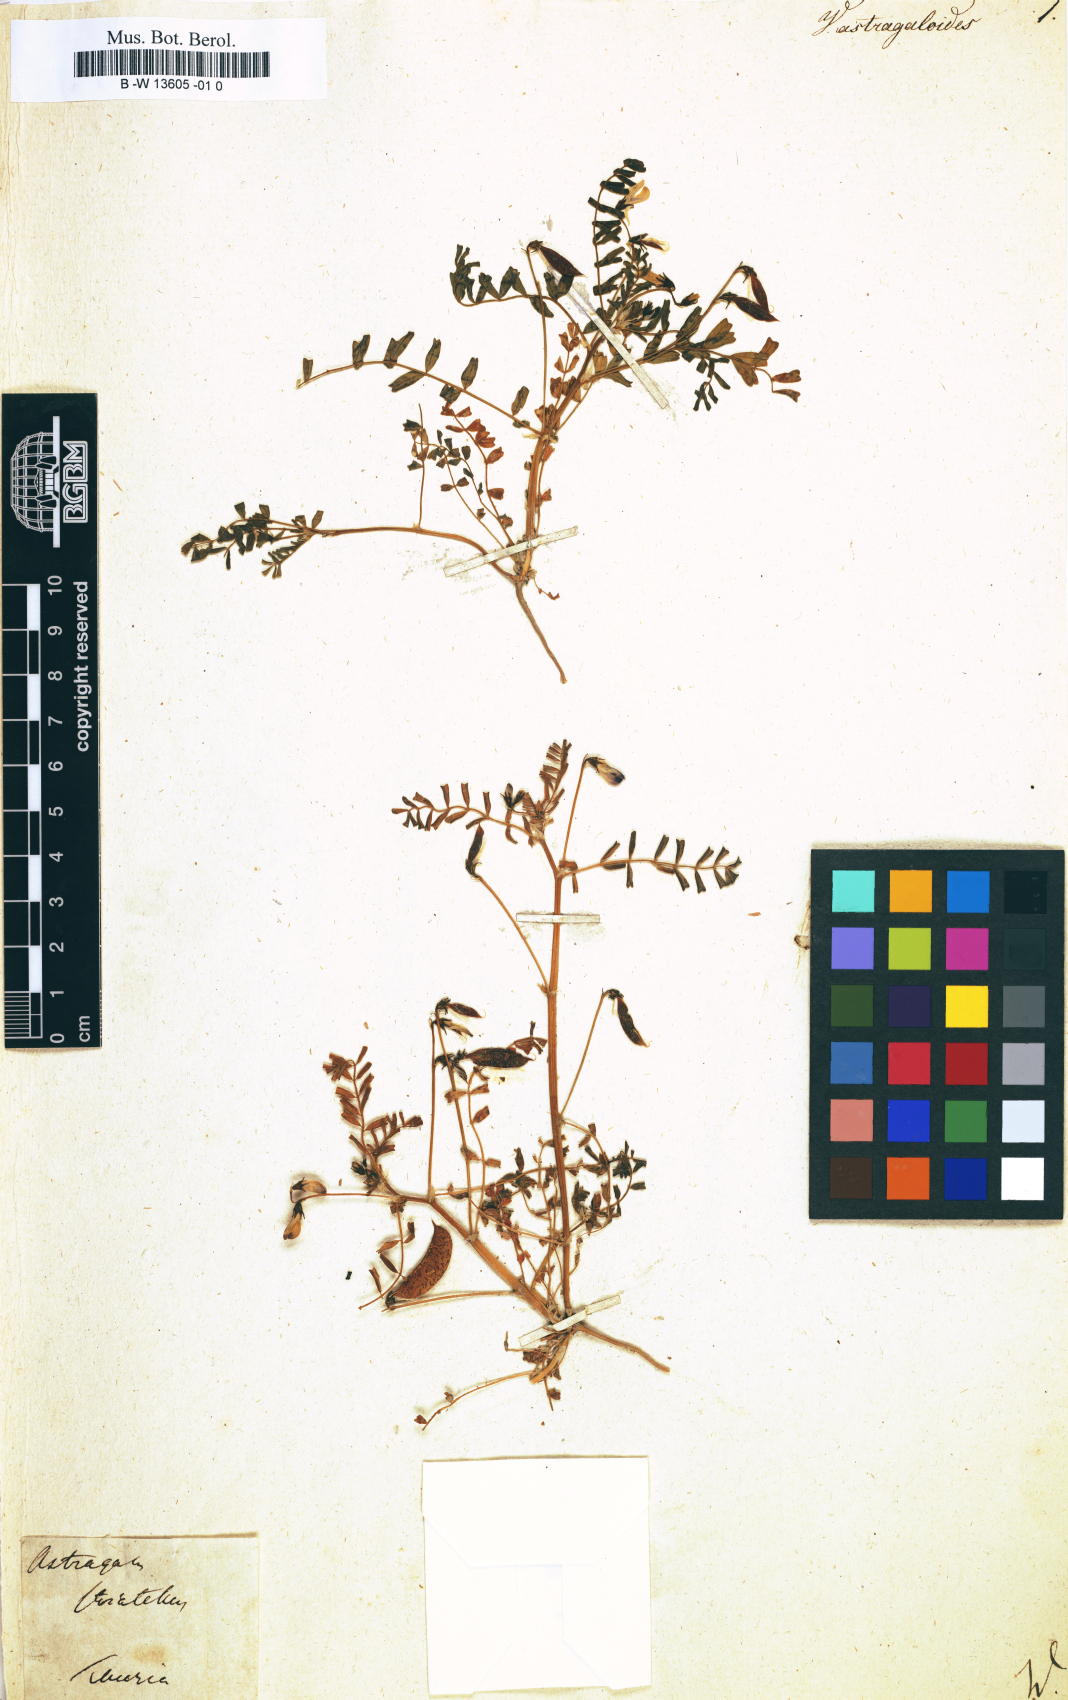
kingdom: Plantae
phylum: Tracheophyta
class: Magnoliopsida
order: Fabales
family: Fabaceae
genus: Astragalus
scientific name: Astragalus guttatus
